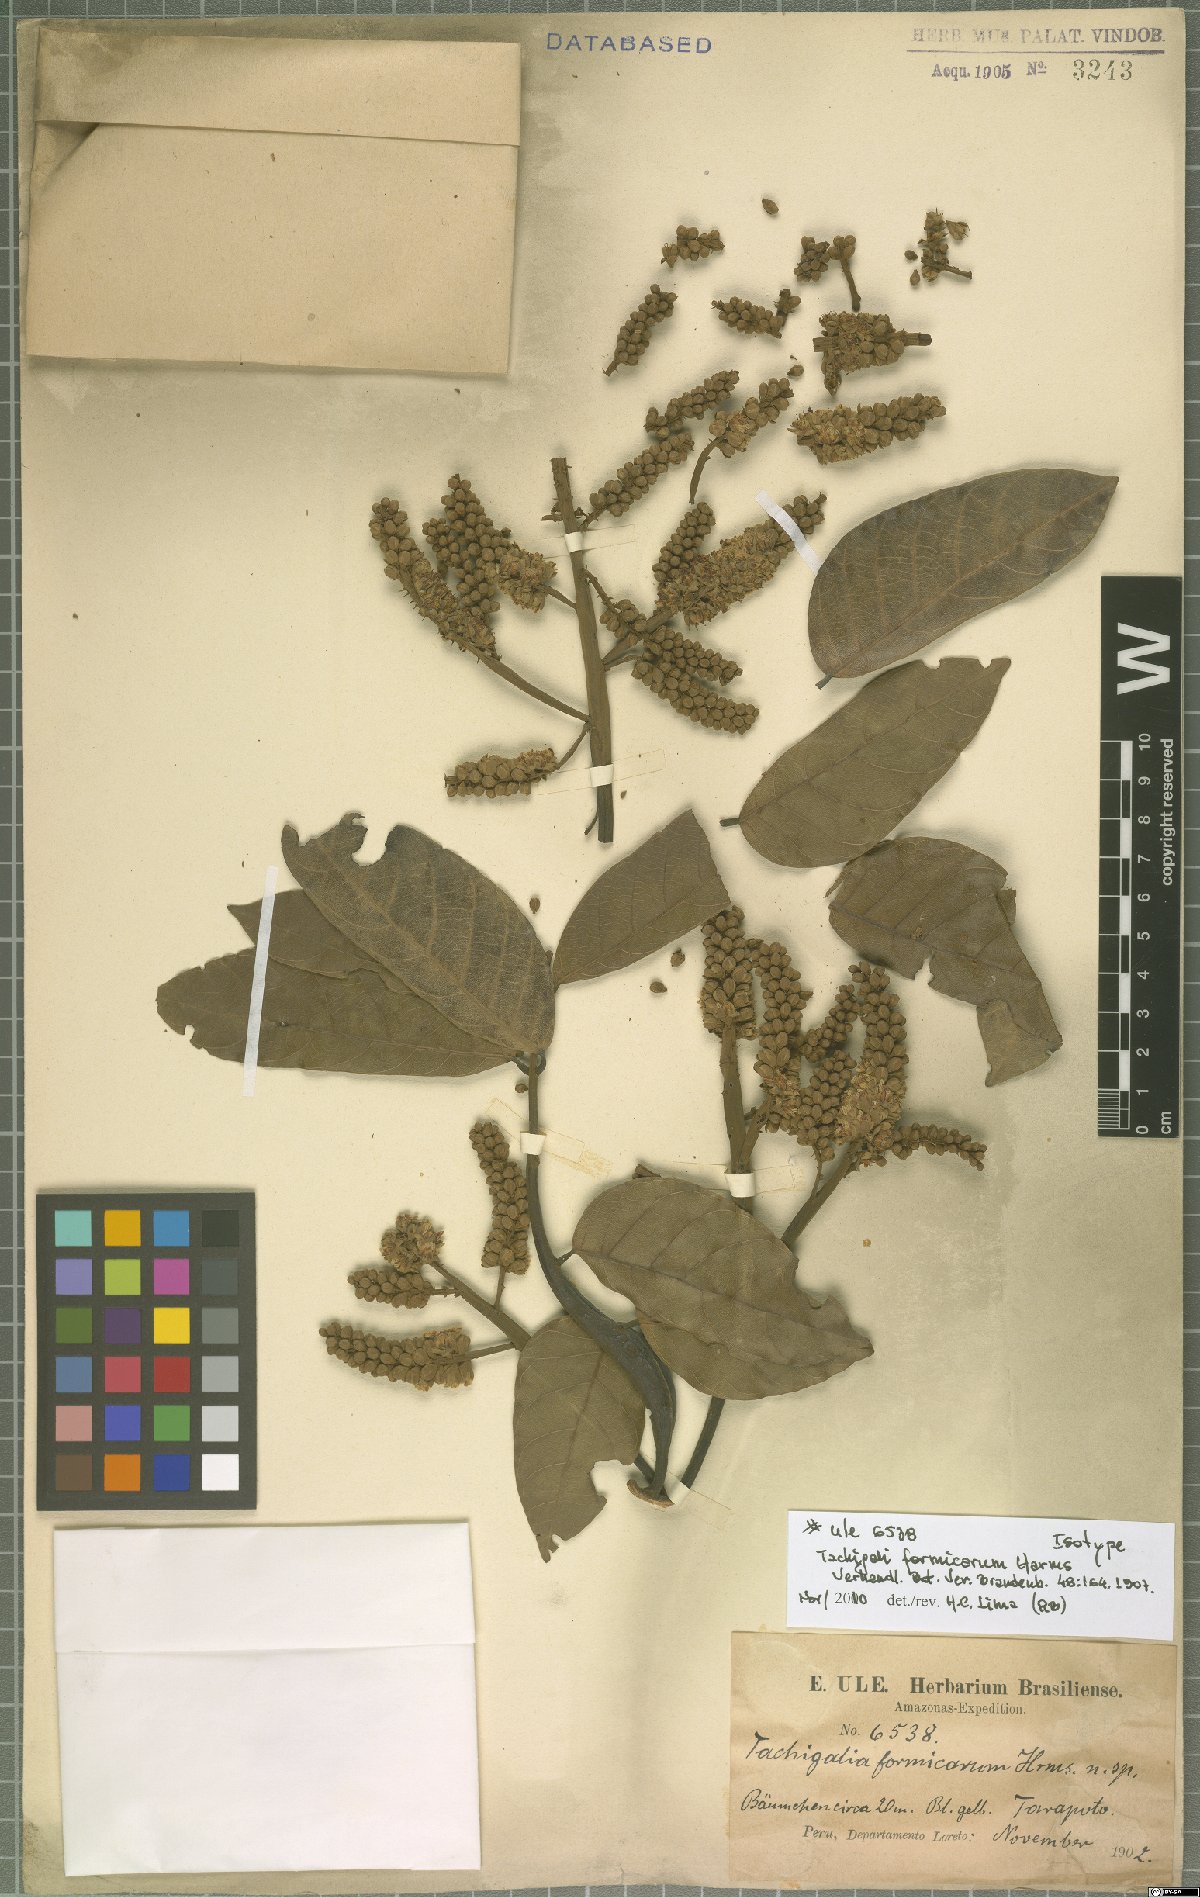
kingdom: Plantae
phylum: Tracheophyta
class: Magnoliopsida
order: Fabales
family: Fabaceae
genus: Tachigali
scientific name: Tachigali formicarum
